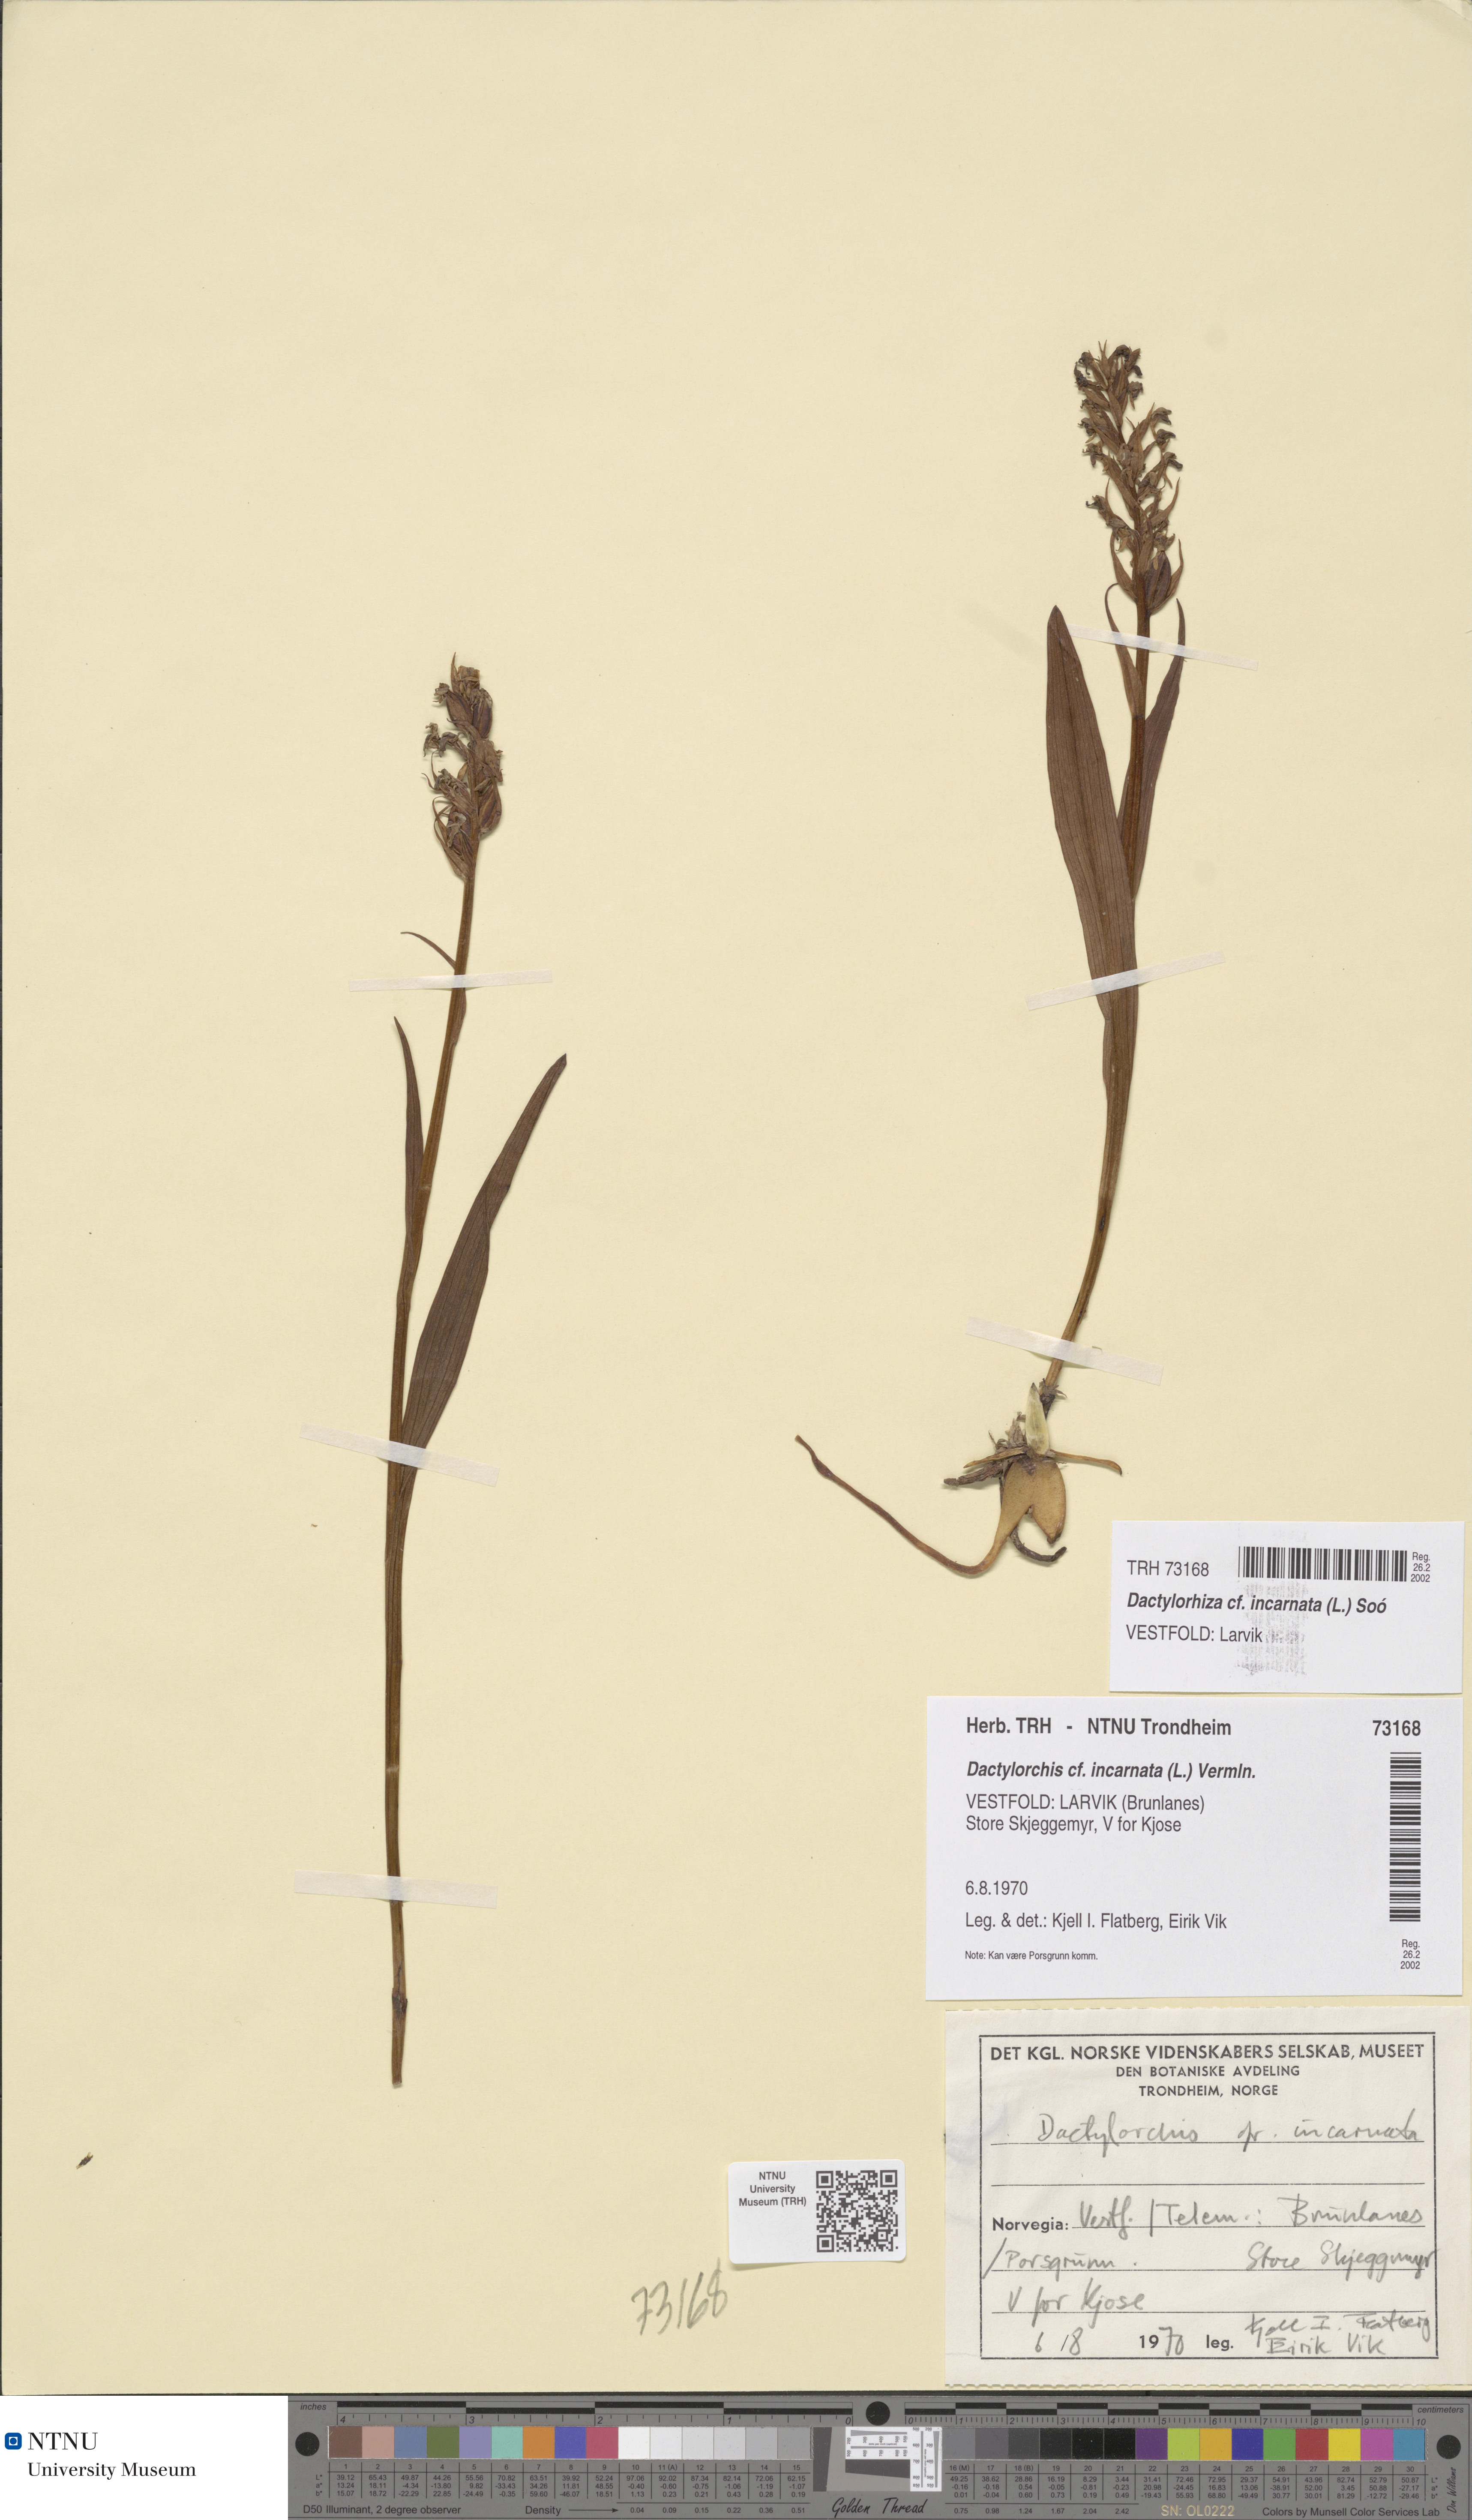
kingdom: Plantae
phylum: Tracheophyta
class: Liliopsida
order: Asparagales
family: Orchidaceae
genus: Dactylorhiza
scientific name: Dactylorhiza incarnata
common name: Early marsh-orchid
